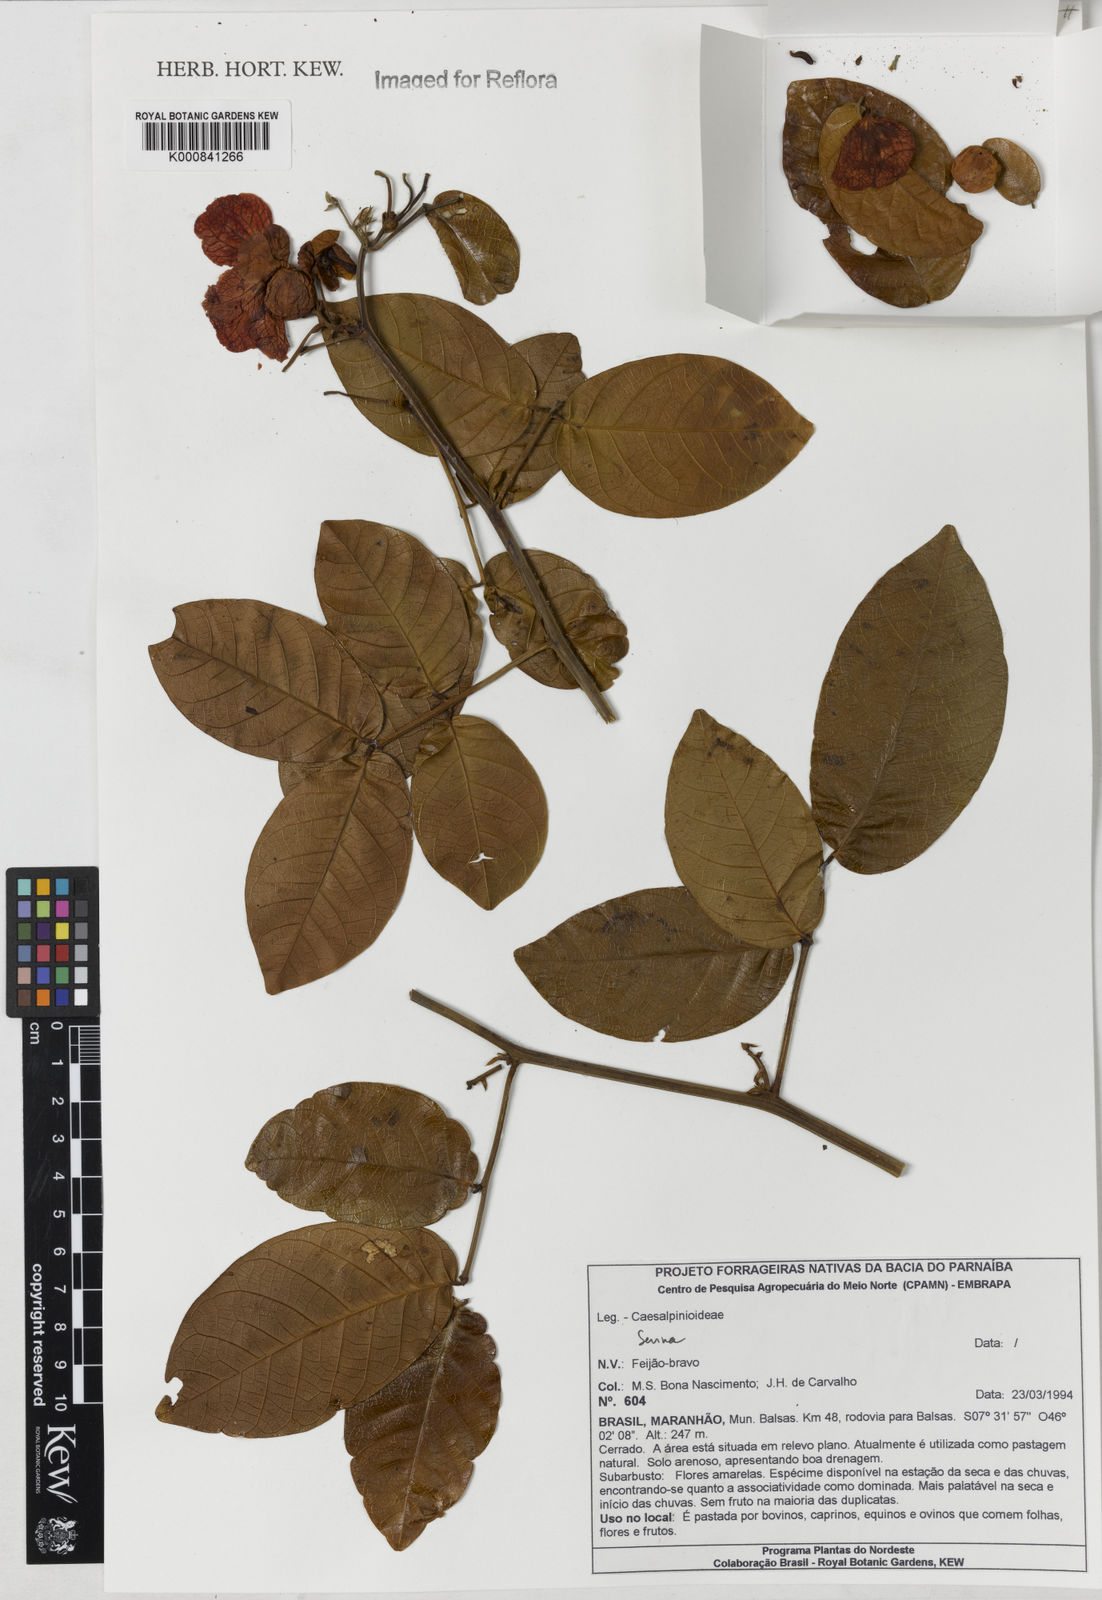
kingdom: Plantae
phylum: Tracheophyta
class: Magnoliopsida
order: Fabales
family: Fabaceae
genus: Senna
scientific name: Senna latifolia
